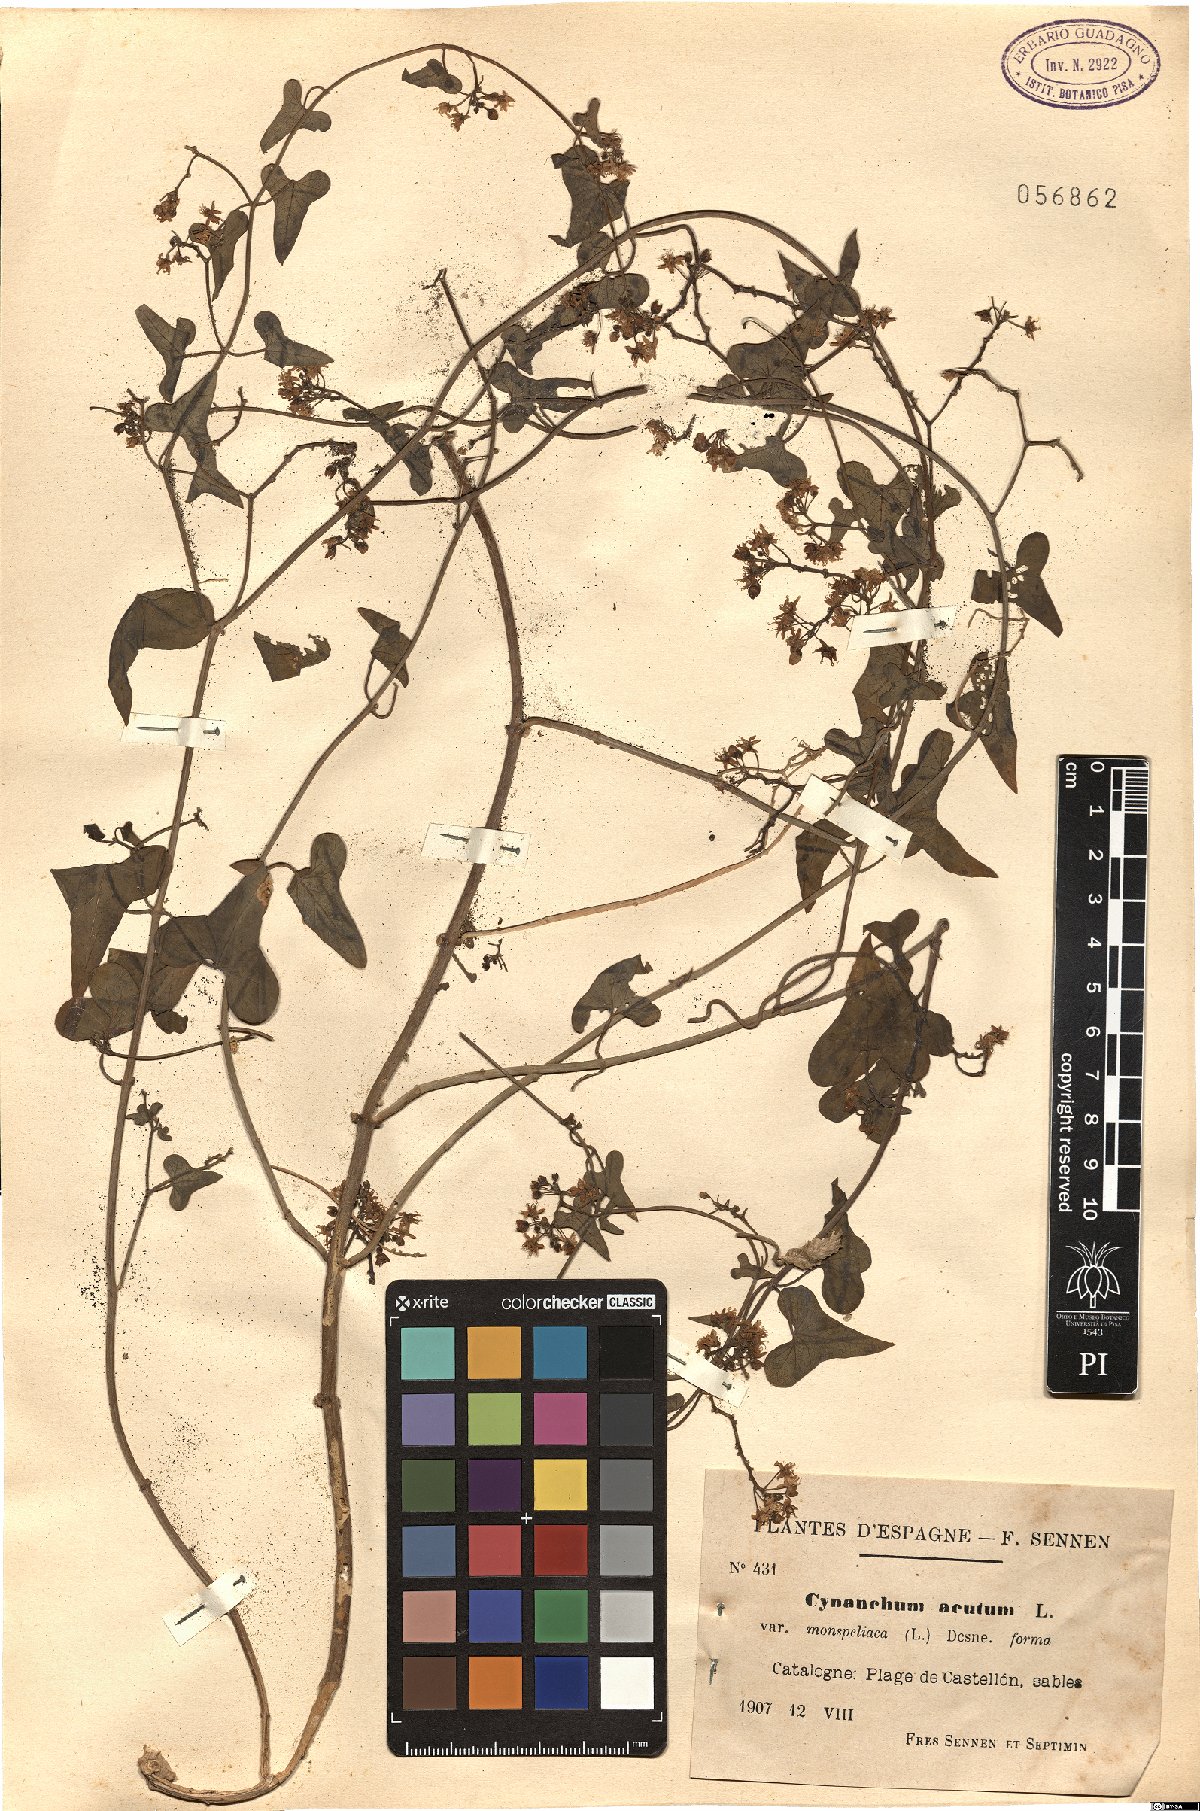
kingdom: Plantae
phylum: Tracheophyta
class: Magnoliopsida
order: Gentianales
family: Apocynaceae
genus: Cynanchum
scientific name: Cynanchum acutum
